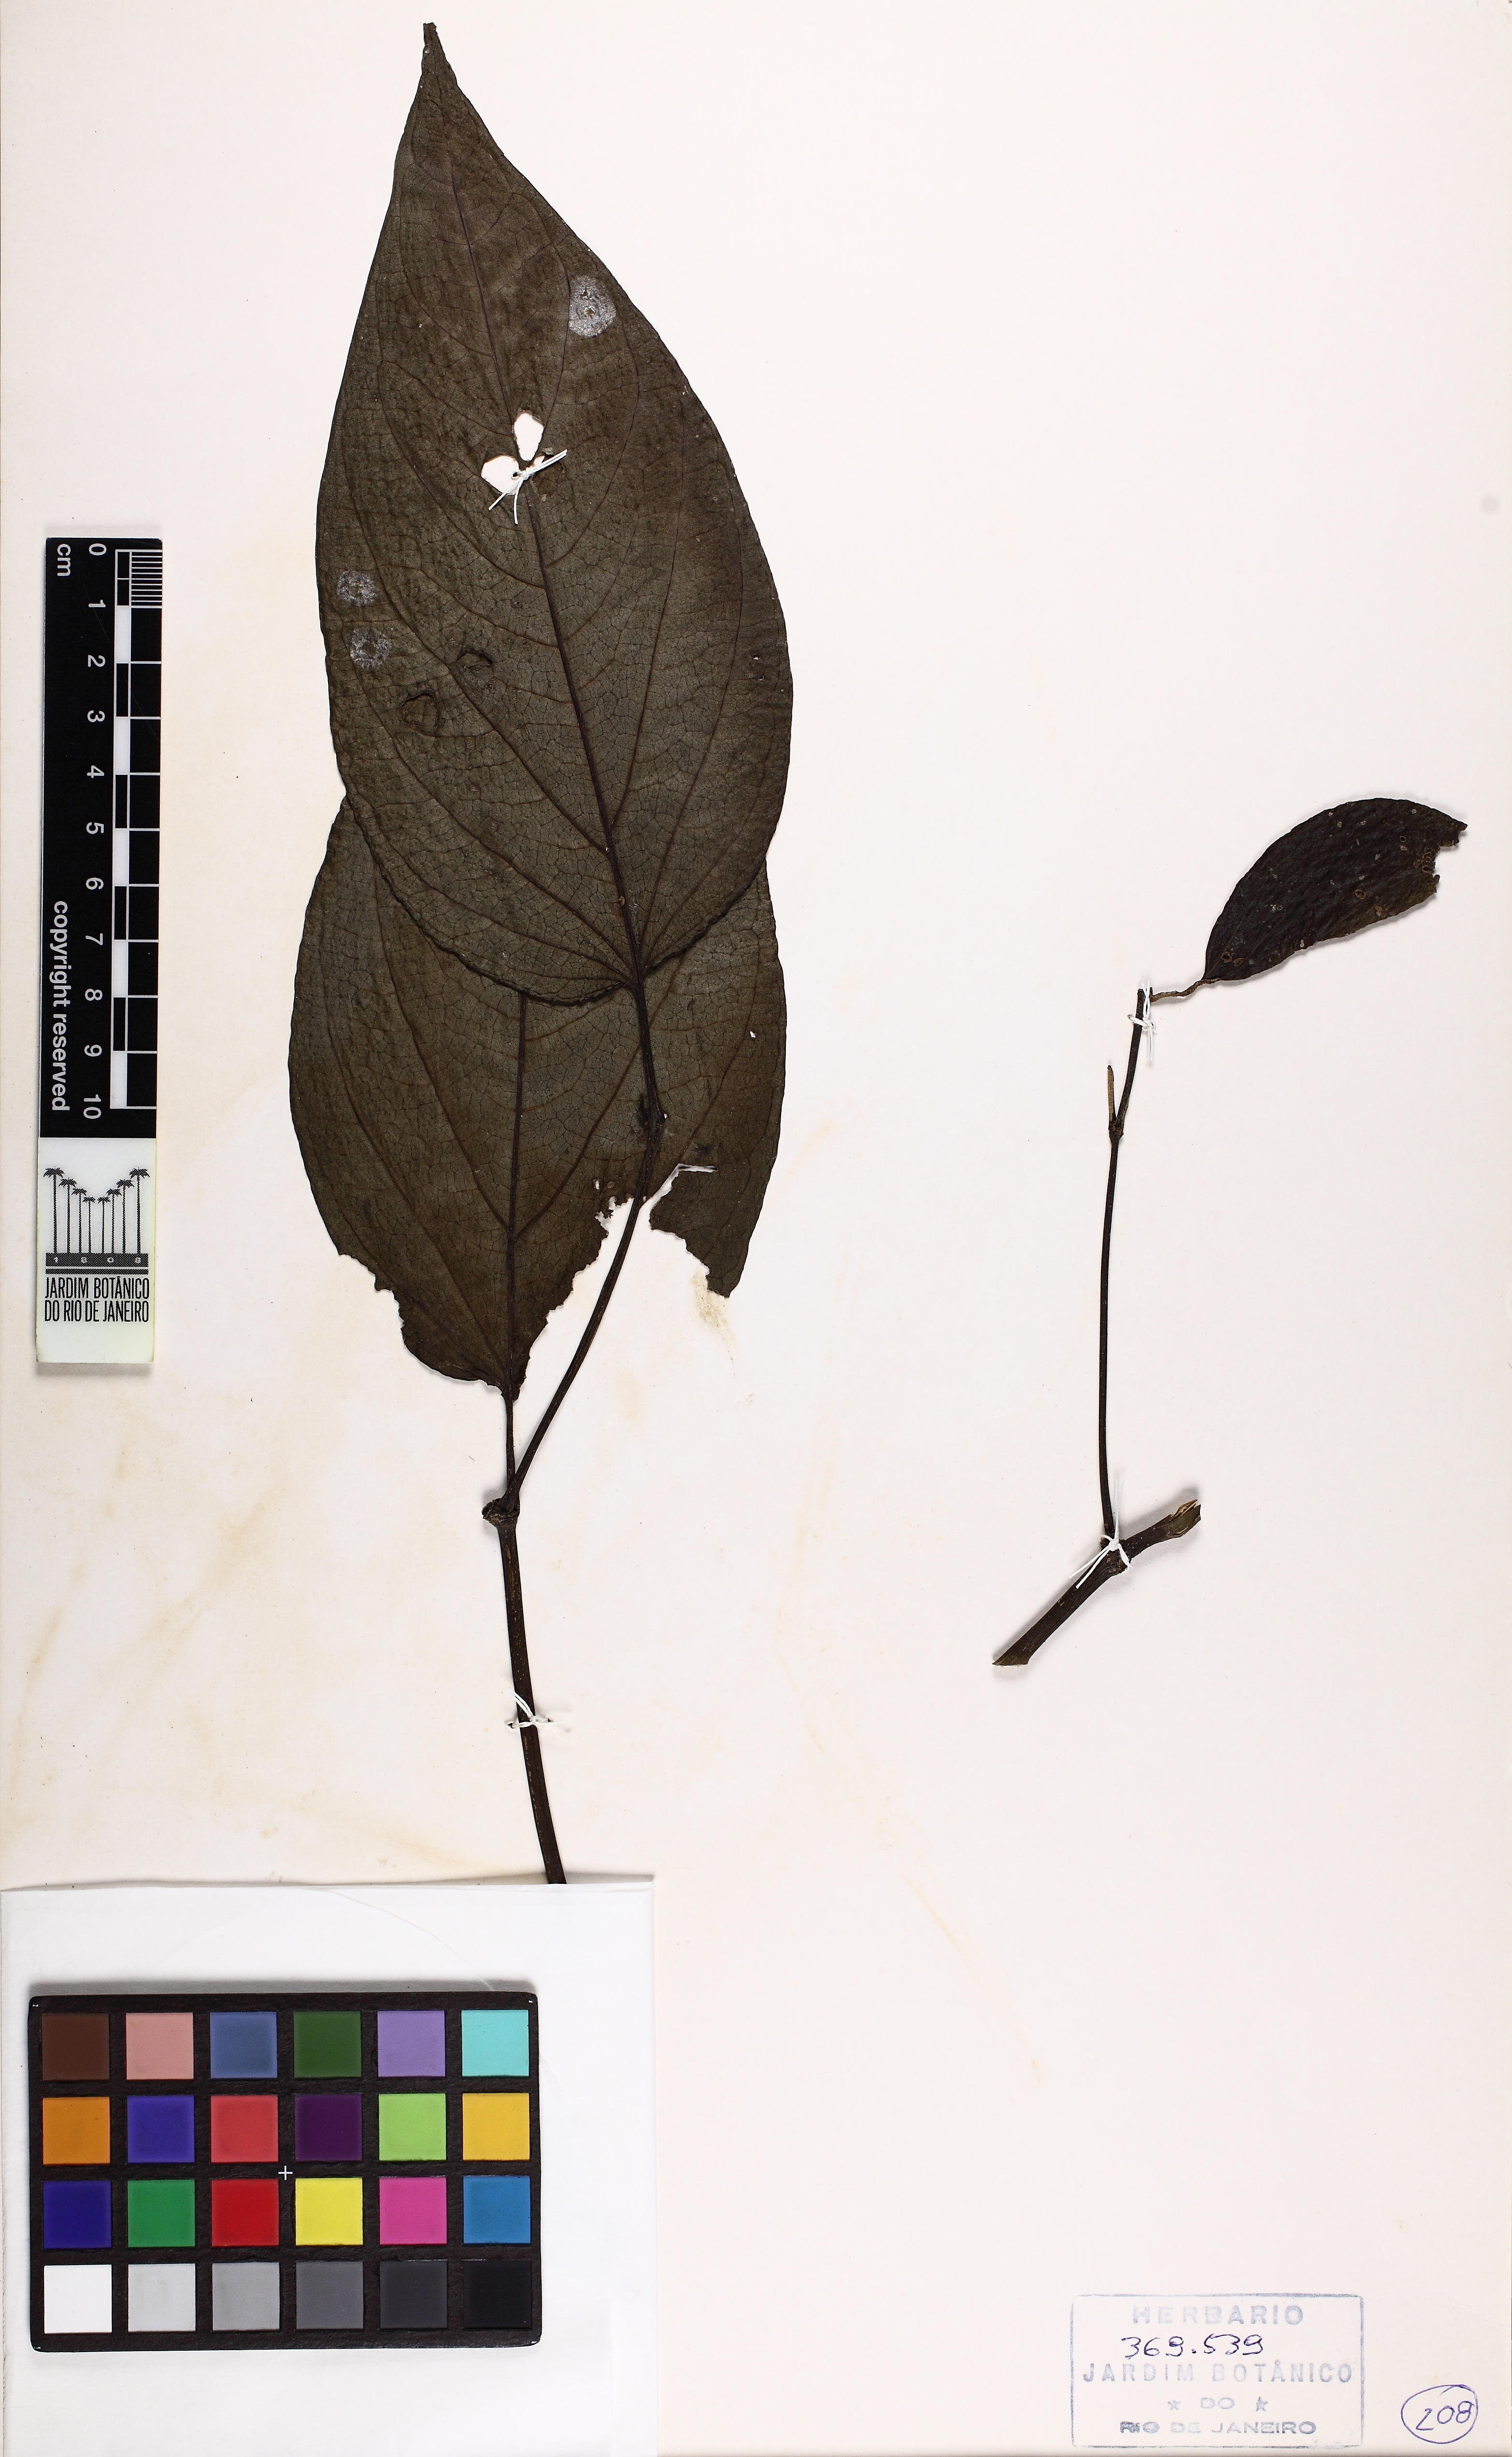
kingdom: Plantae
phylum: Tracheophyta
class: Magnoliopsida
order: Piperales
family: Piperaceae
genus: Piper
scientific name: Piper lepturum
